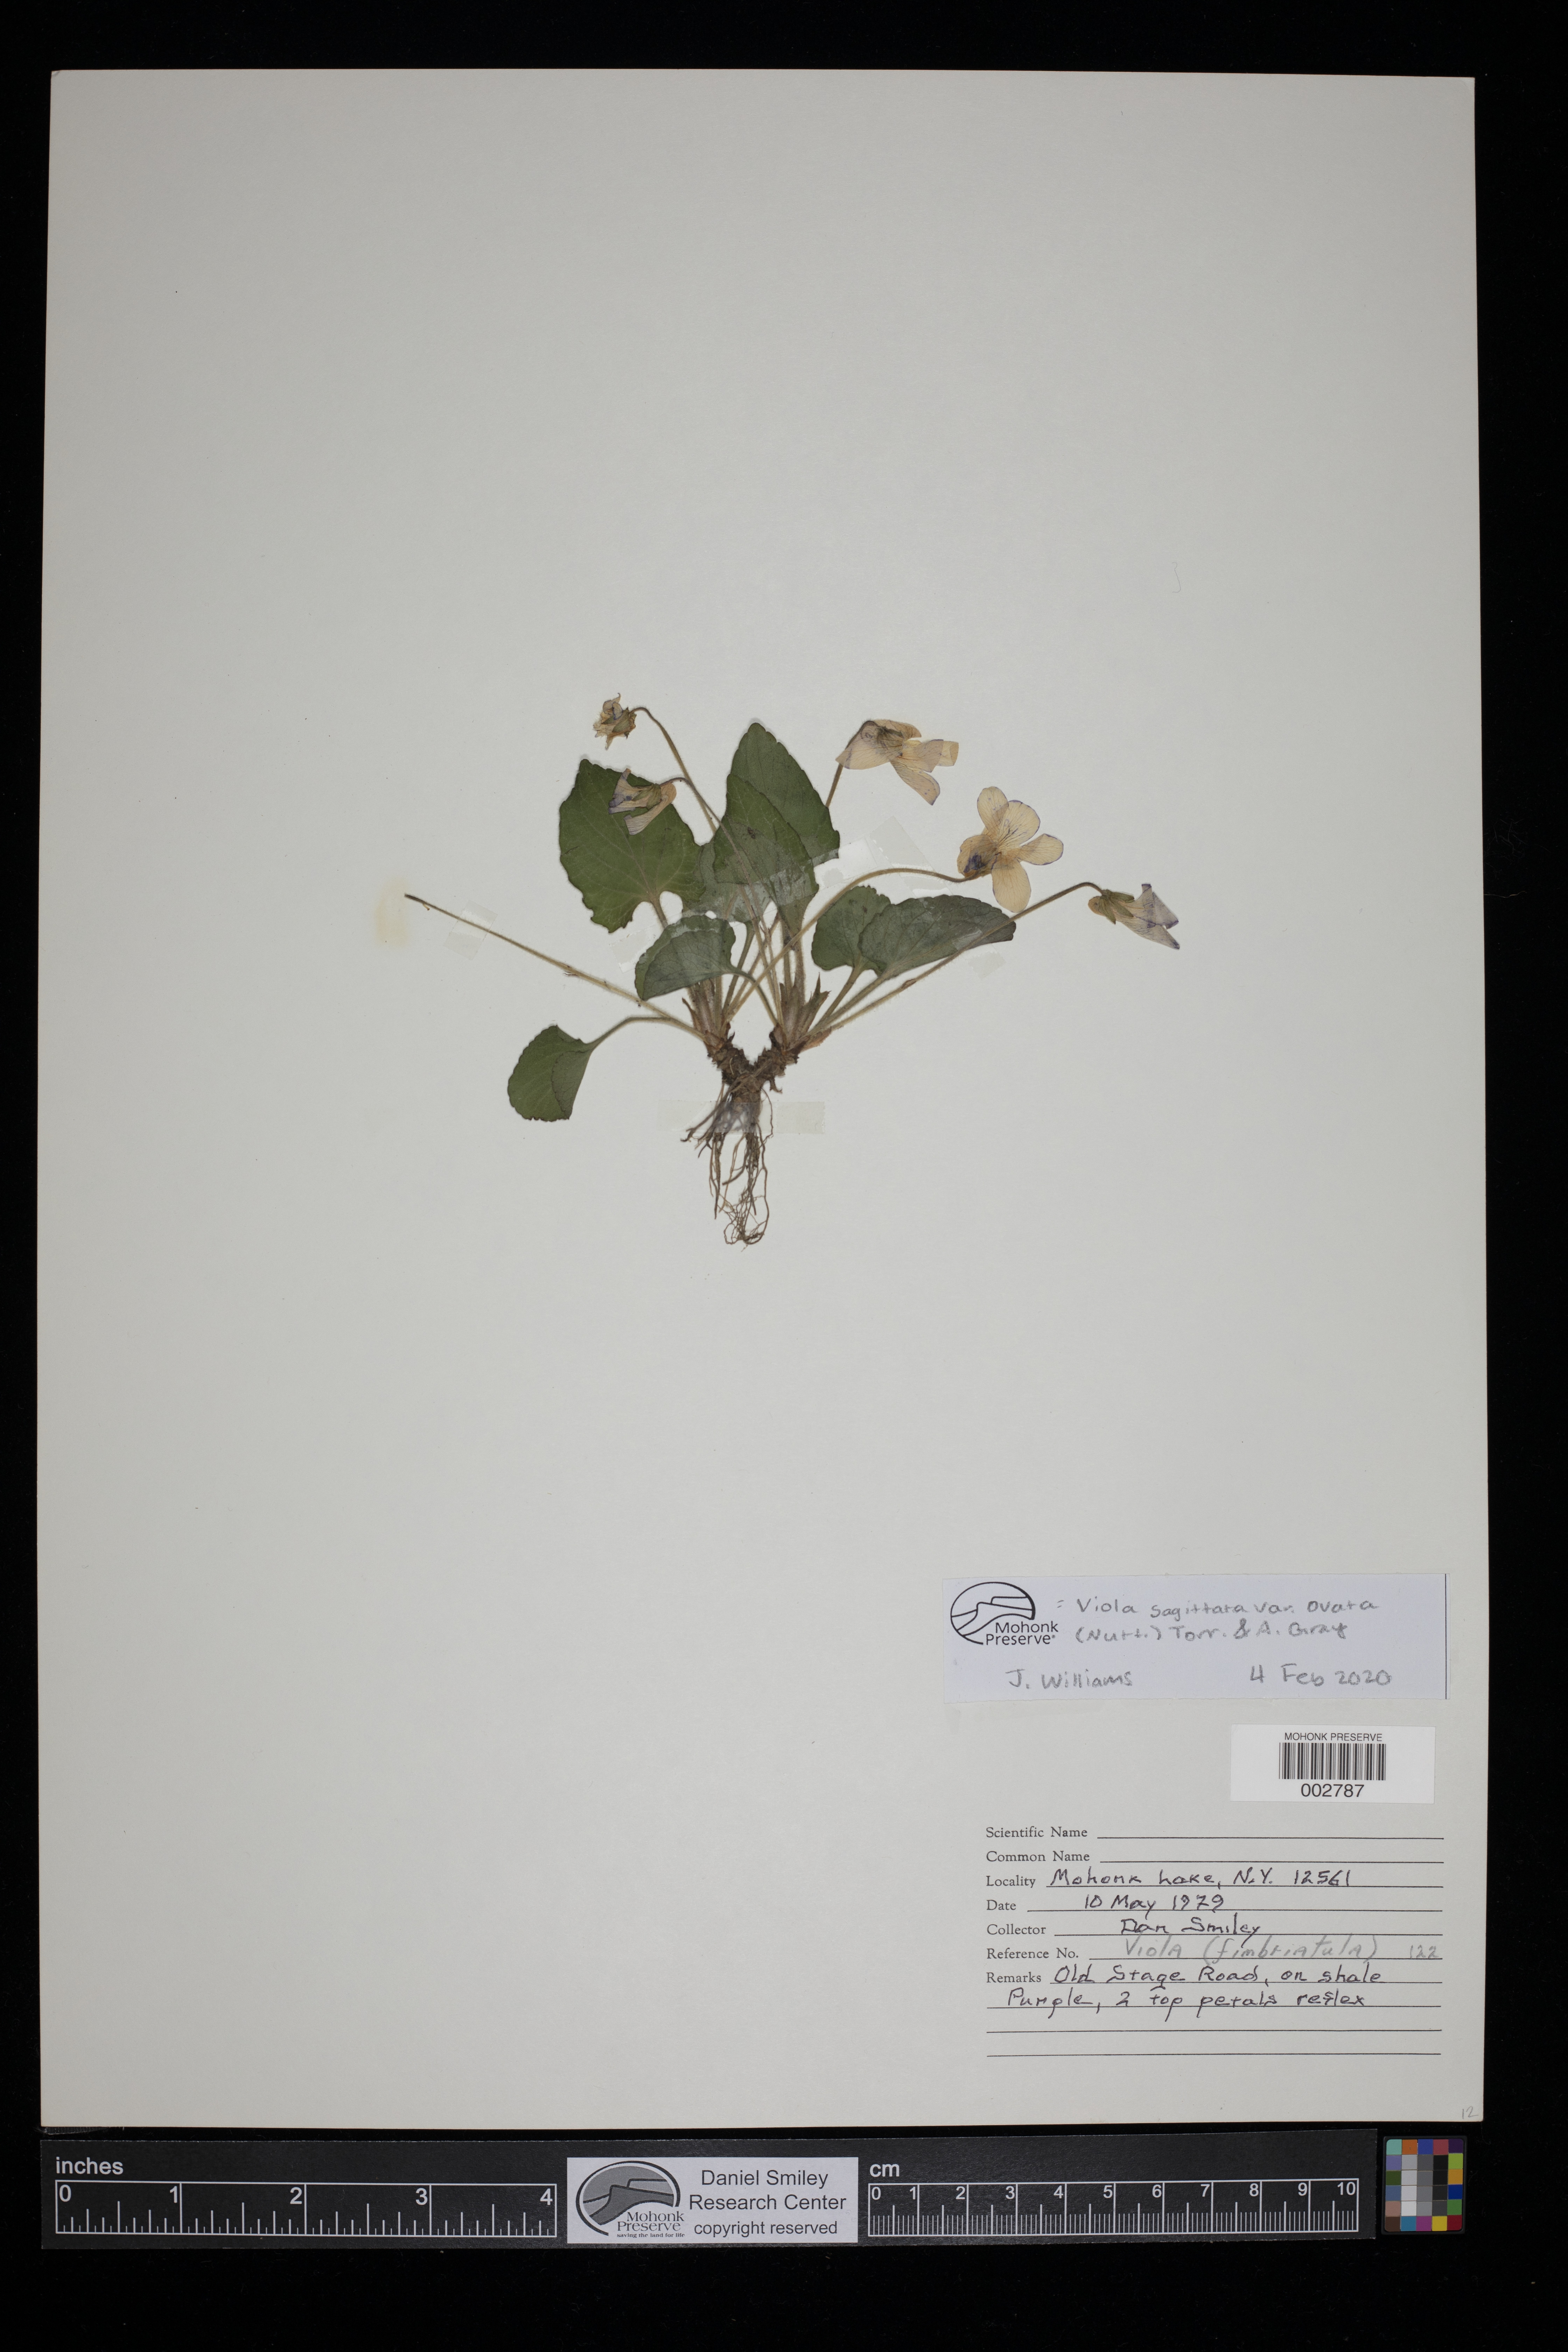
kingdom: Plantae
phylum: Tracheophyta
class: Magnoliopsida
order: Malpighiales
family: Violaceae
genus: Viola
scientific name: Viola fimbriatula
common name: Sand violet
